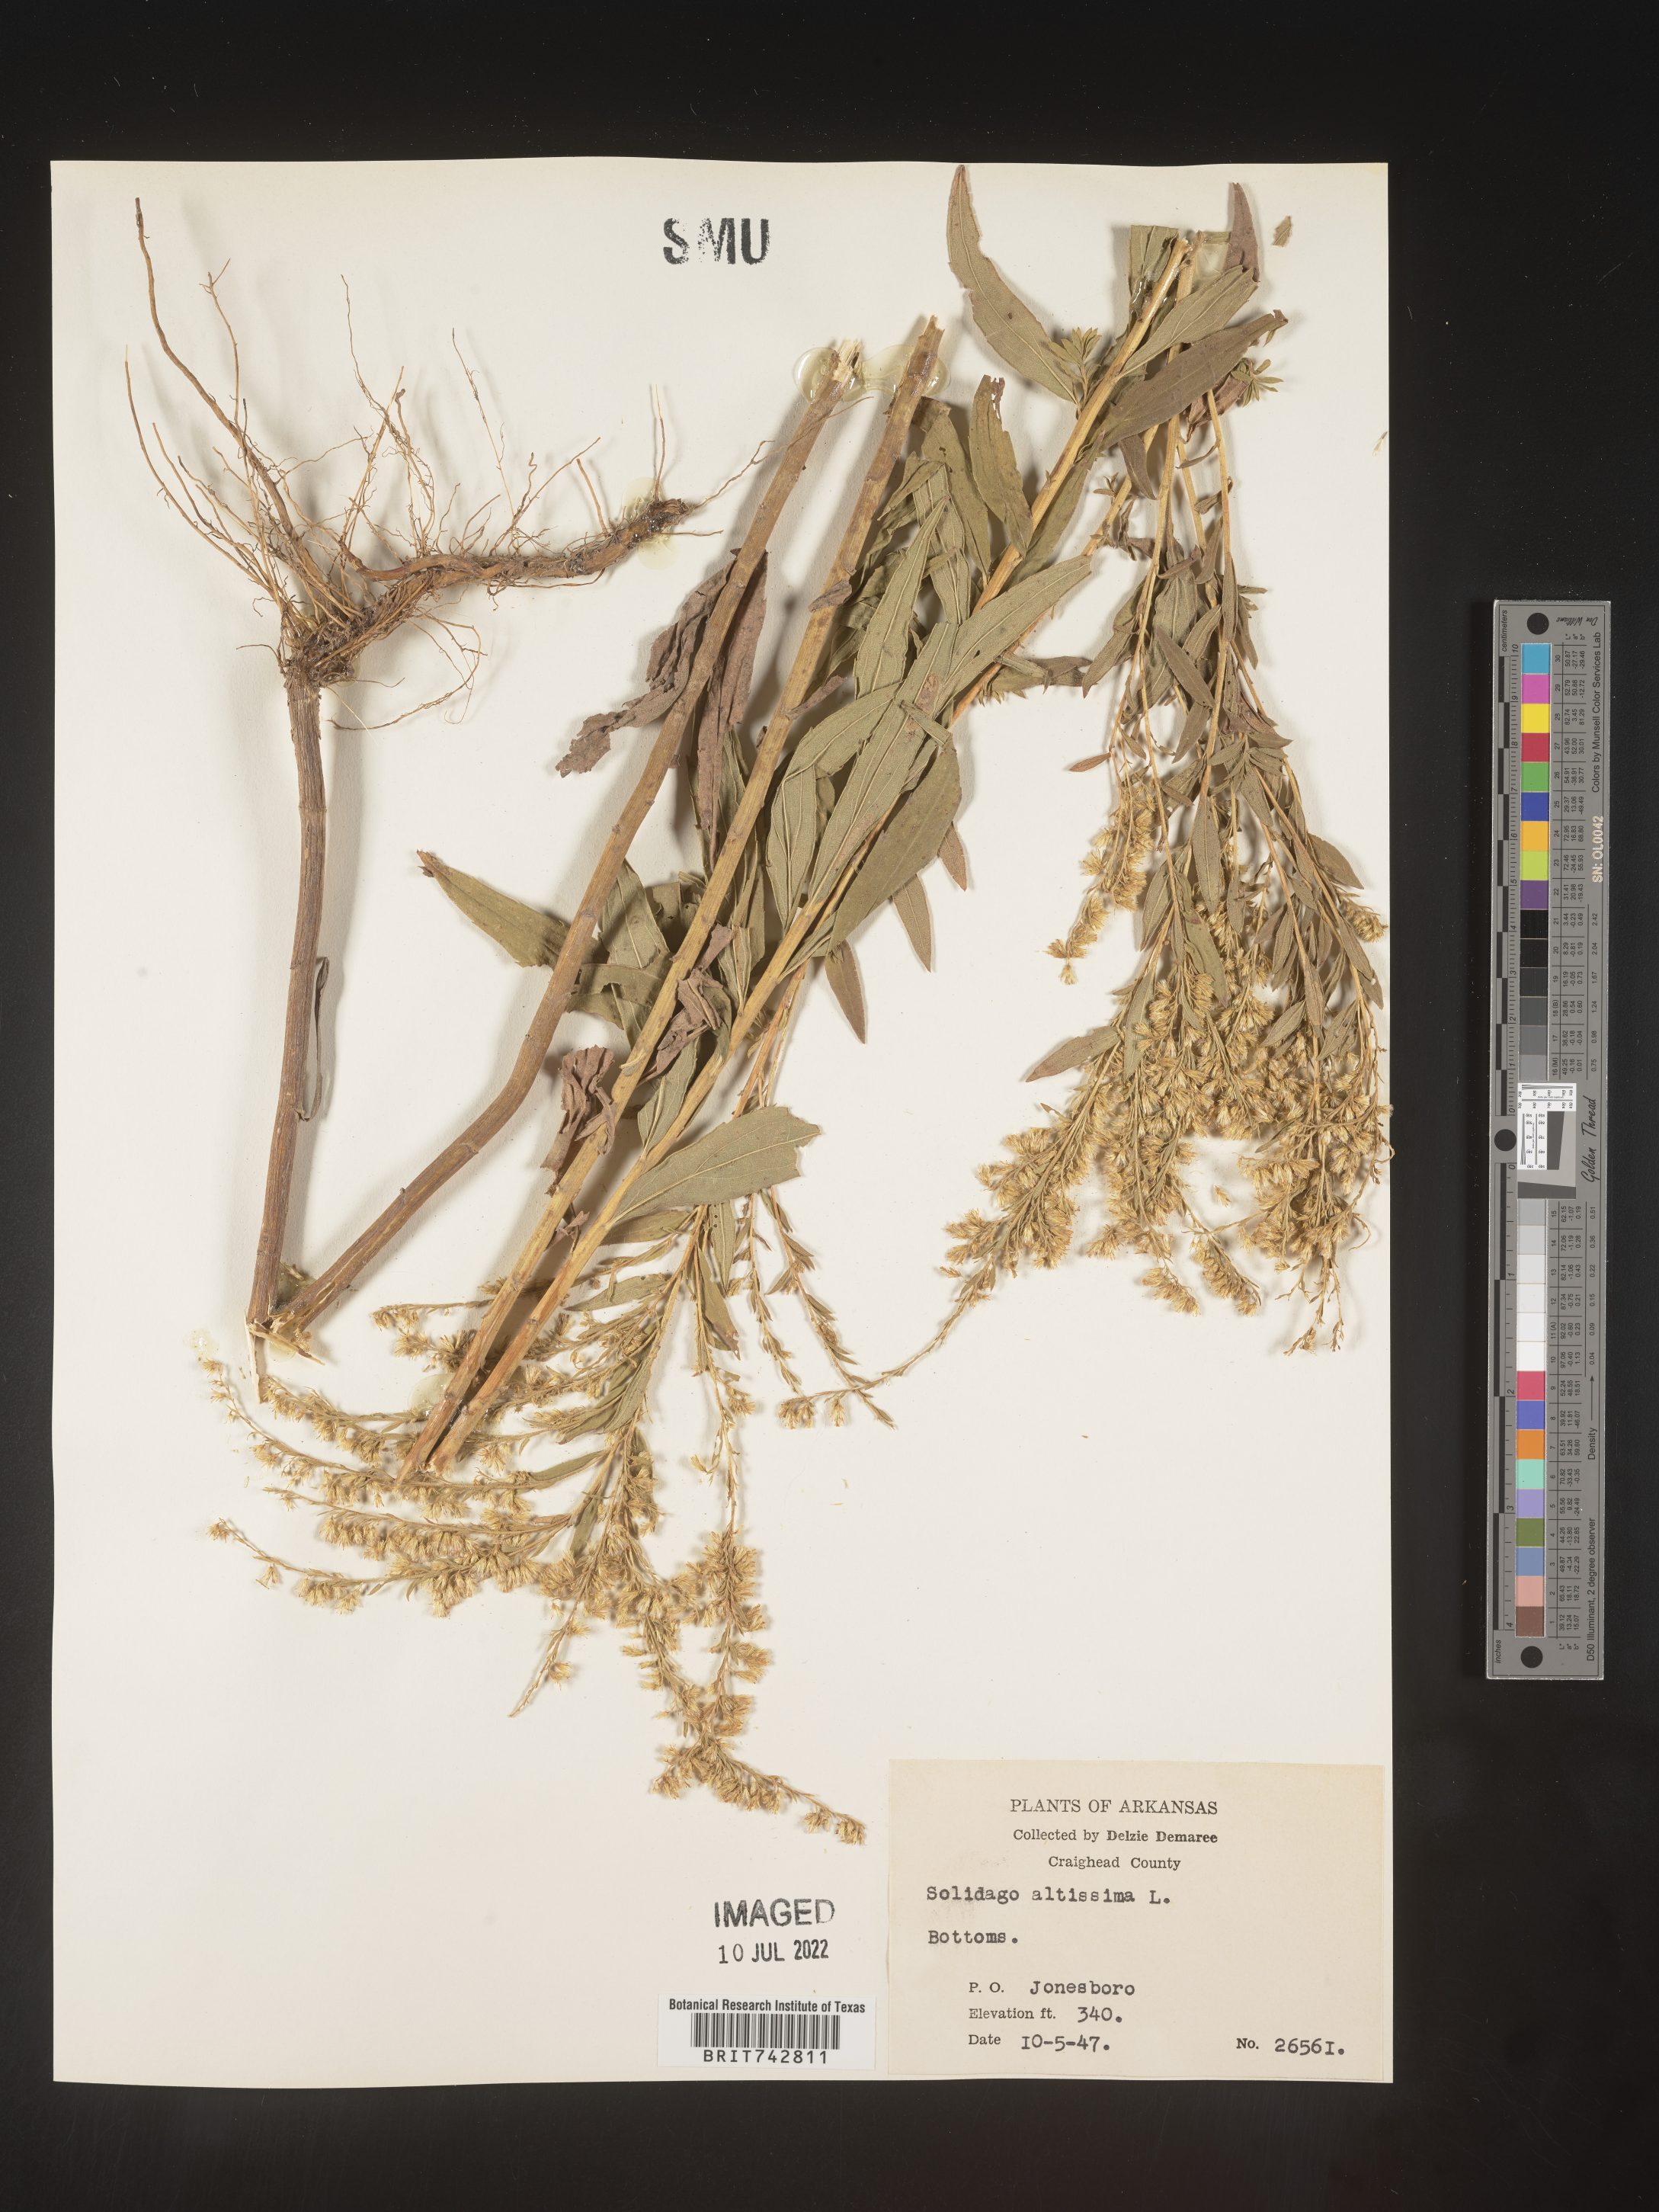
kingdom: Plantae
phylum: Tracheophyta
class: Magnoliopsida
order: Asterales
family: Asteraceae
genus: Solidago
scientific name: Solidago altissima
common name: Late goldenrod
